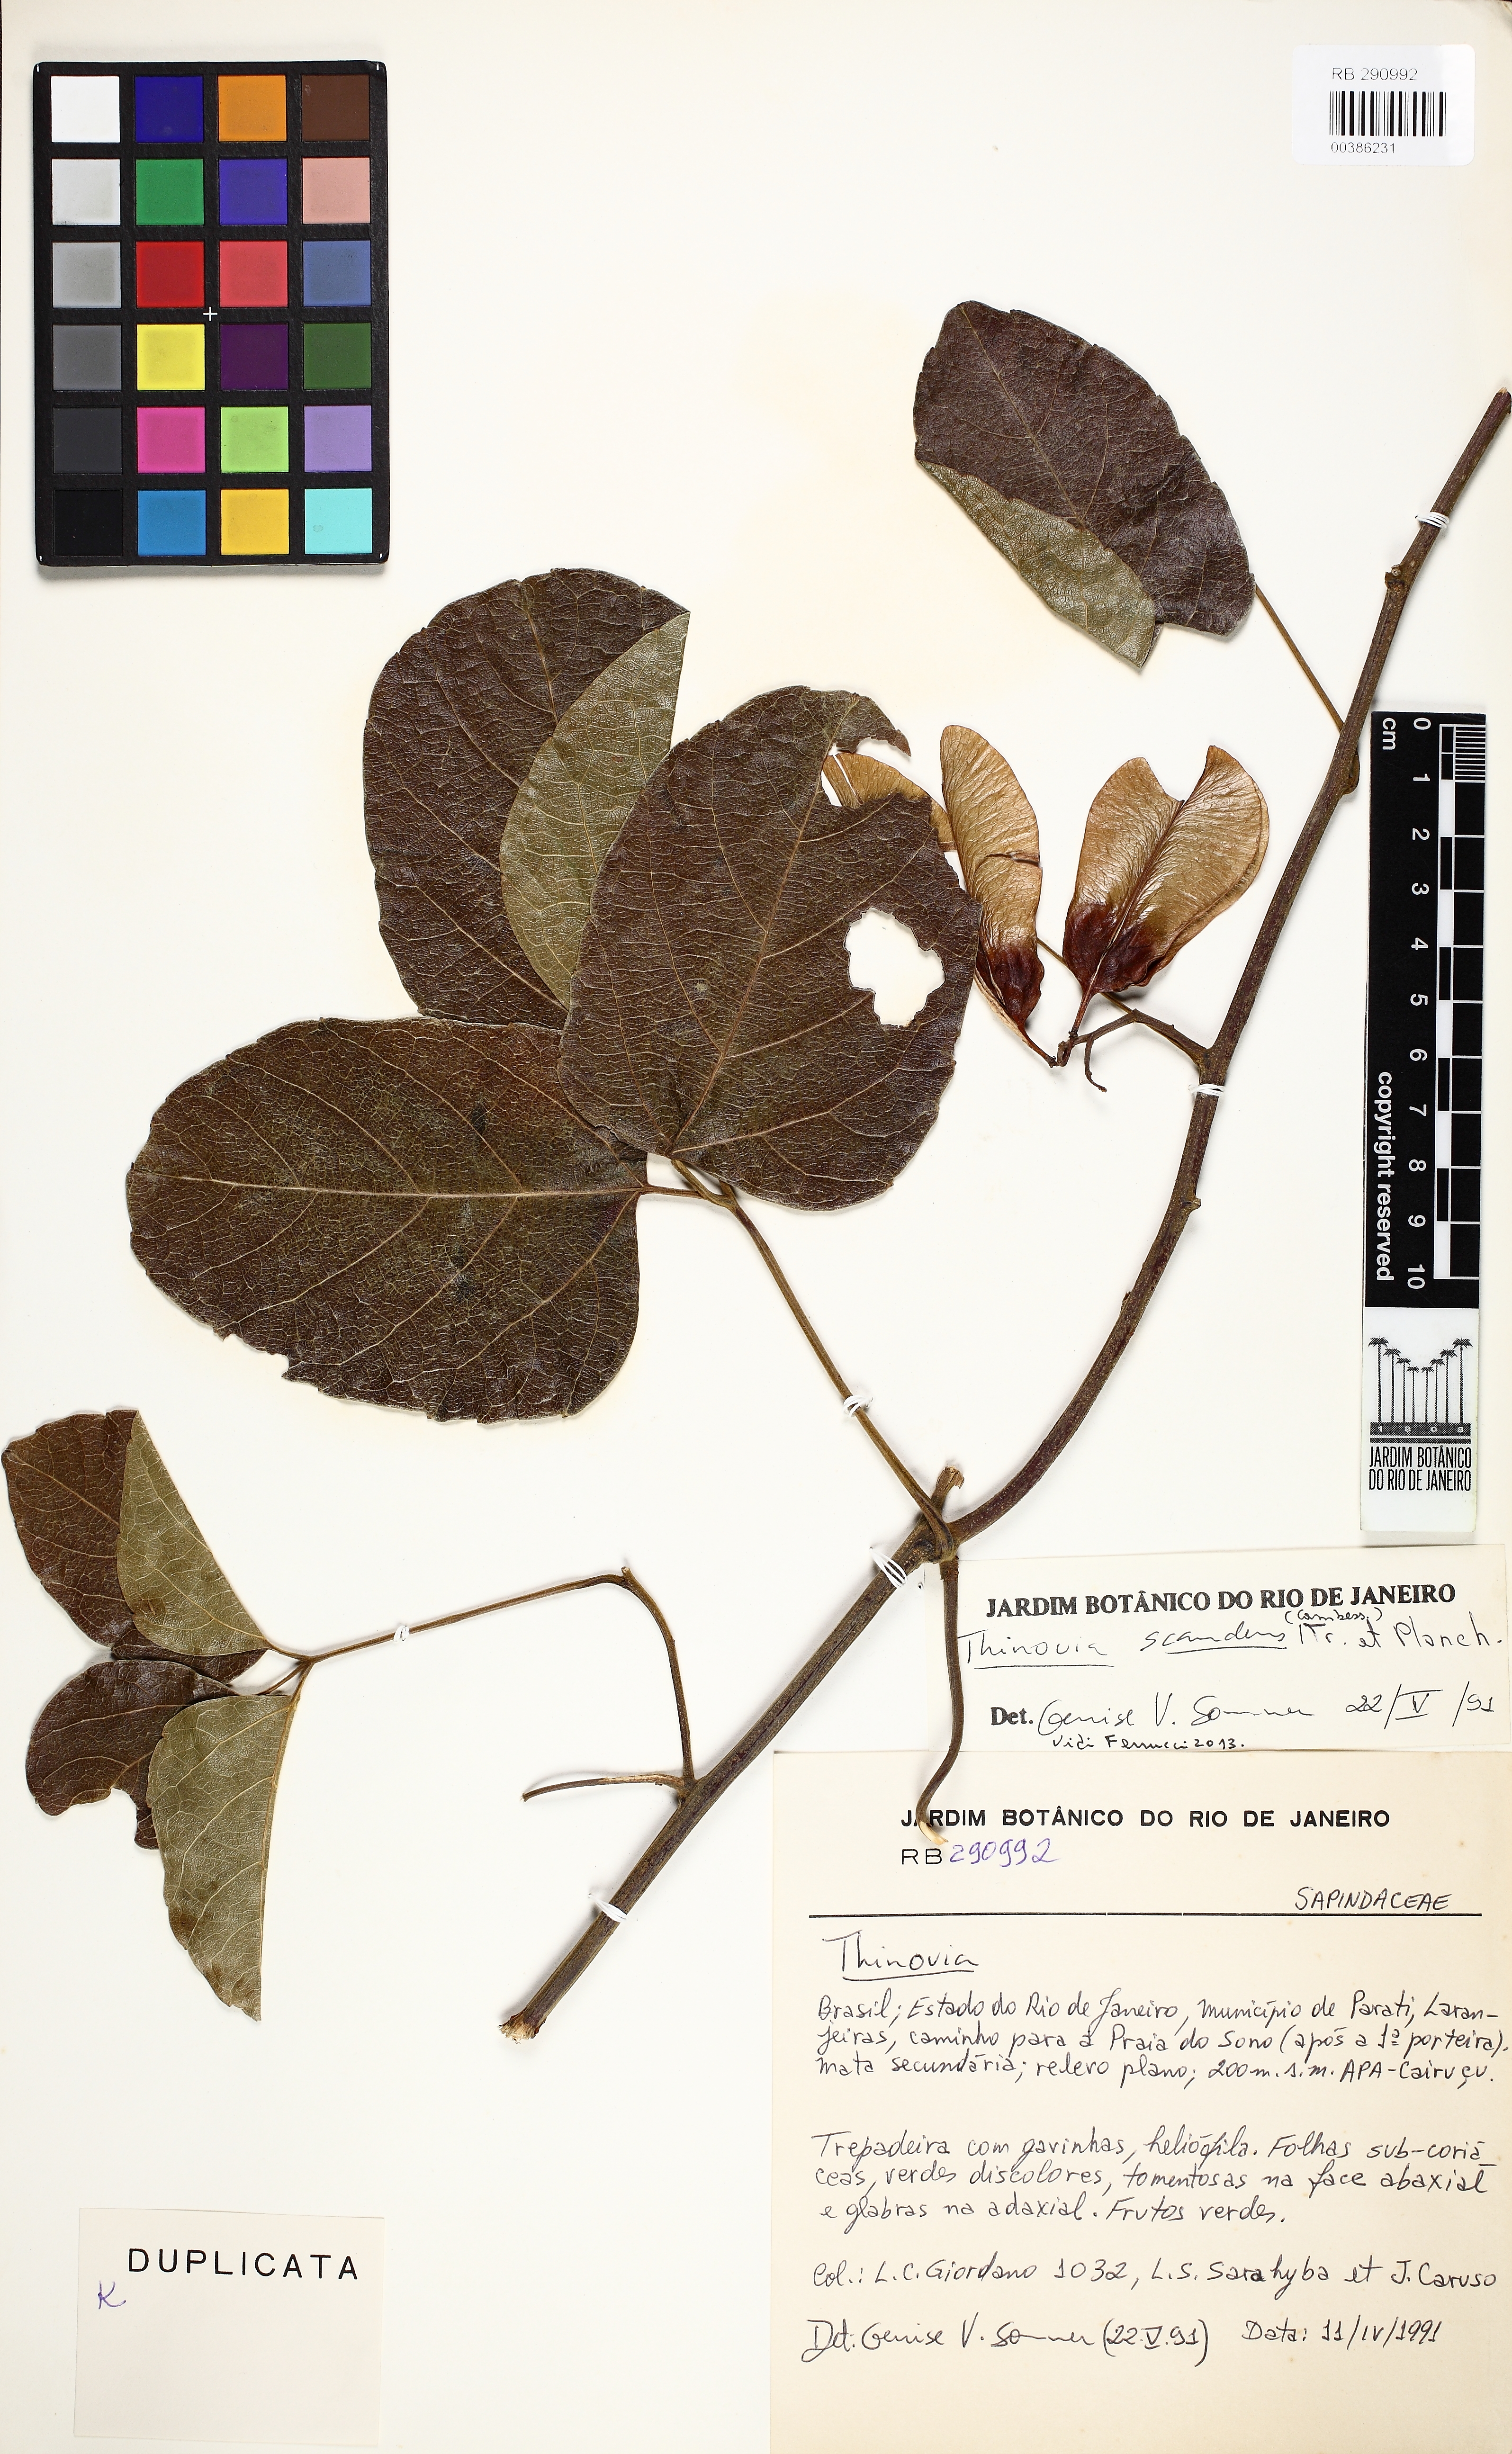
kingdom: Plantae
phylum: Tracheophyta
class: Magnoliopsida
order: Sapindales
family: Sapindaceae
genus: Thinouia
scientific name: Thinouia scandens
